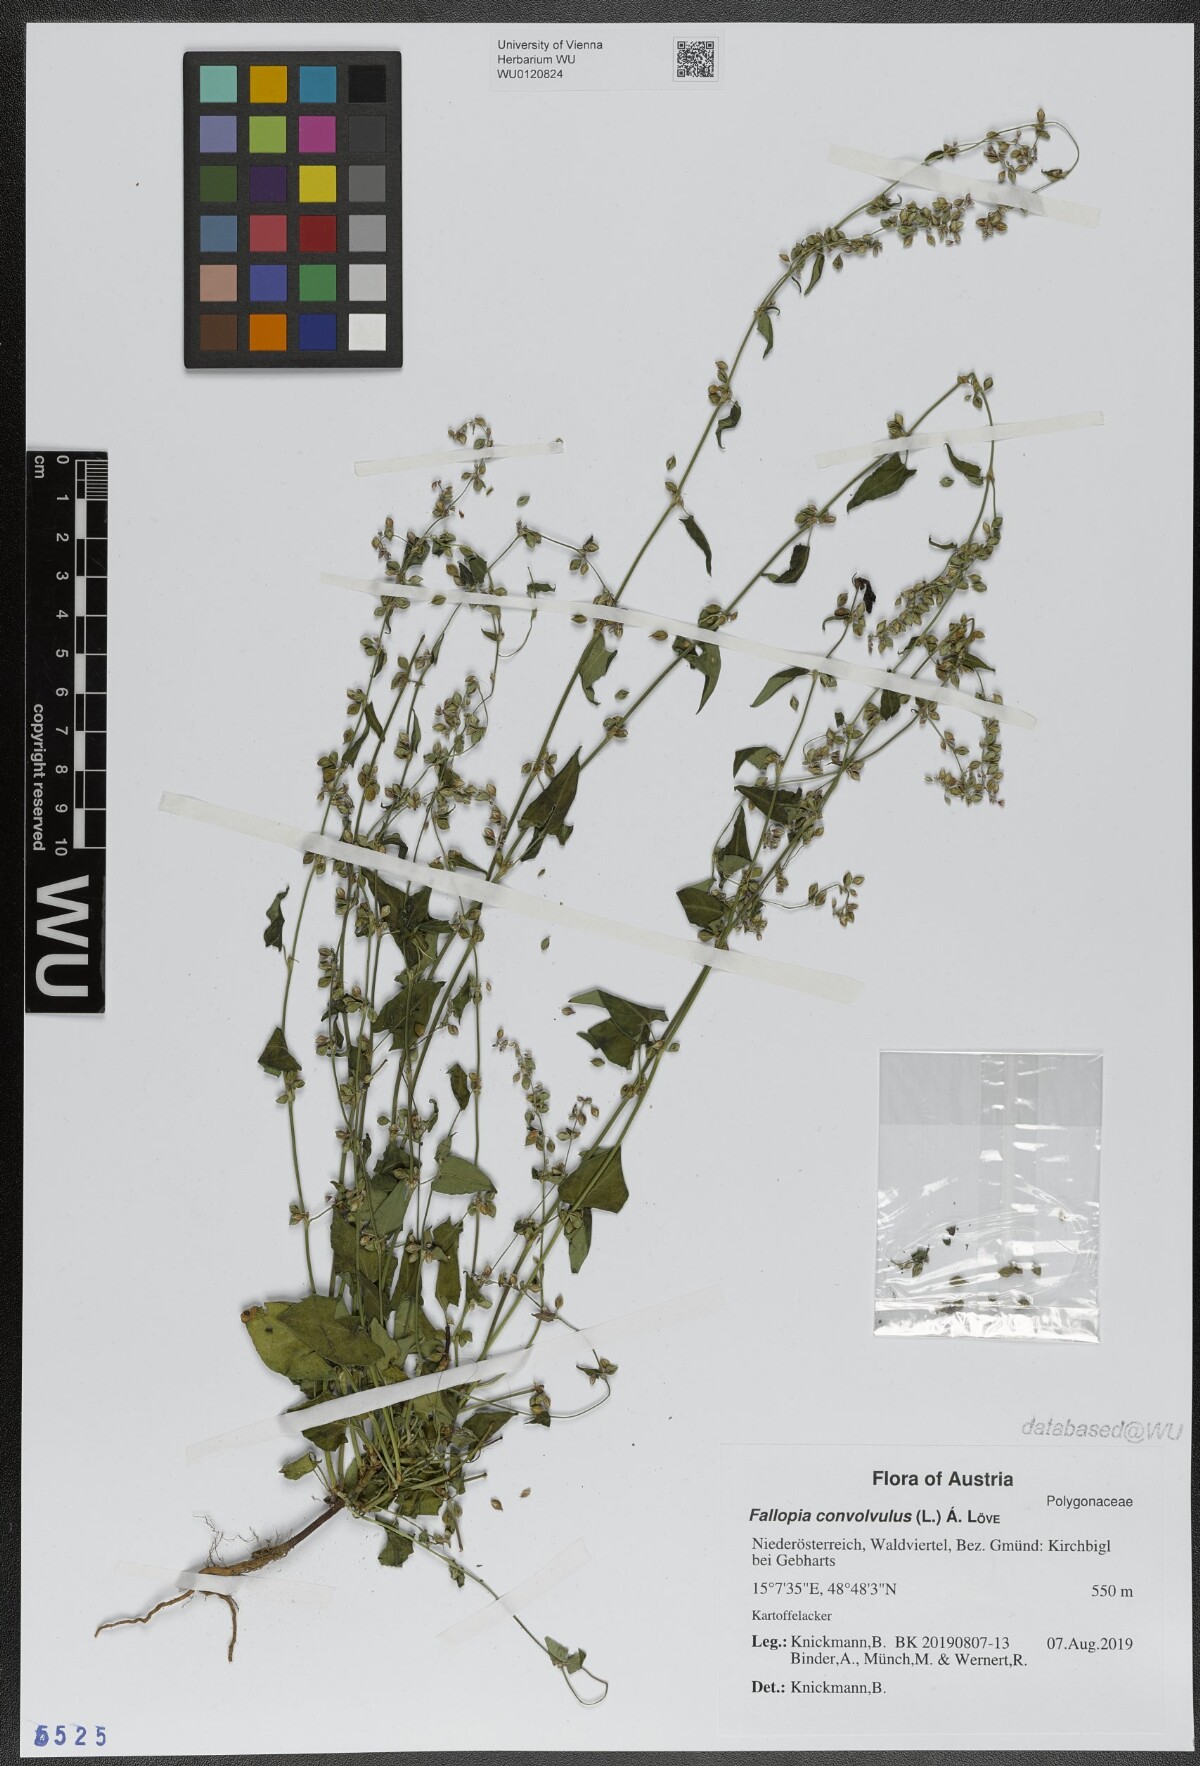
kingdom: Plantae
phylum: Tracheophyta
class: Magnoliopsida
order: Caryophyllales
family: Polygonaceae
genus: Fallopia
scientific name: Fallopia convolvulus
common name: Black bindweed
